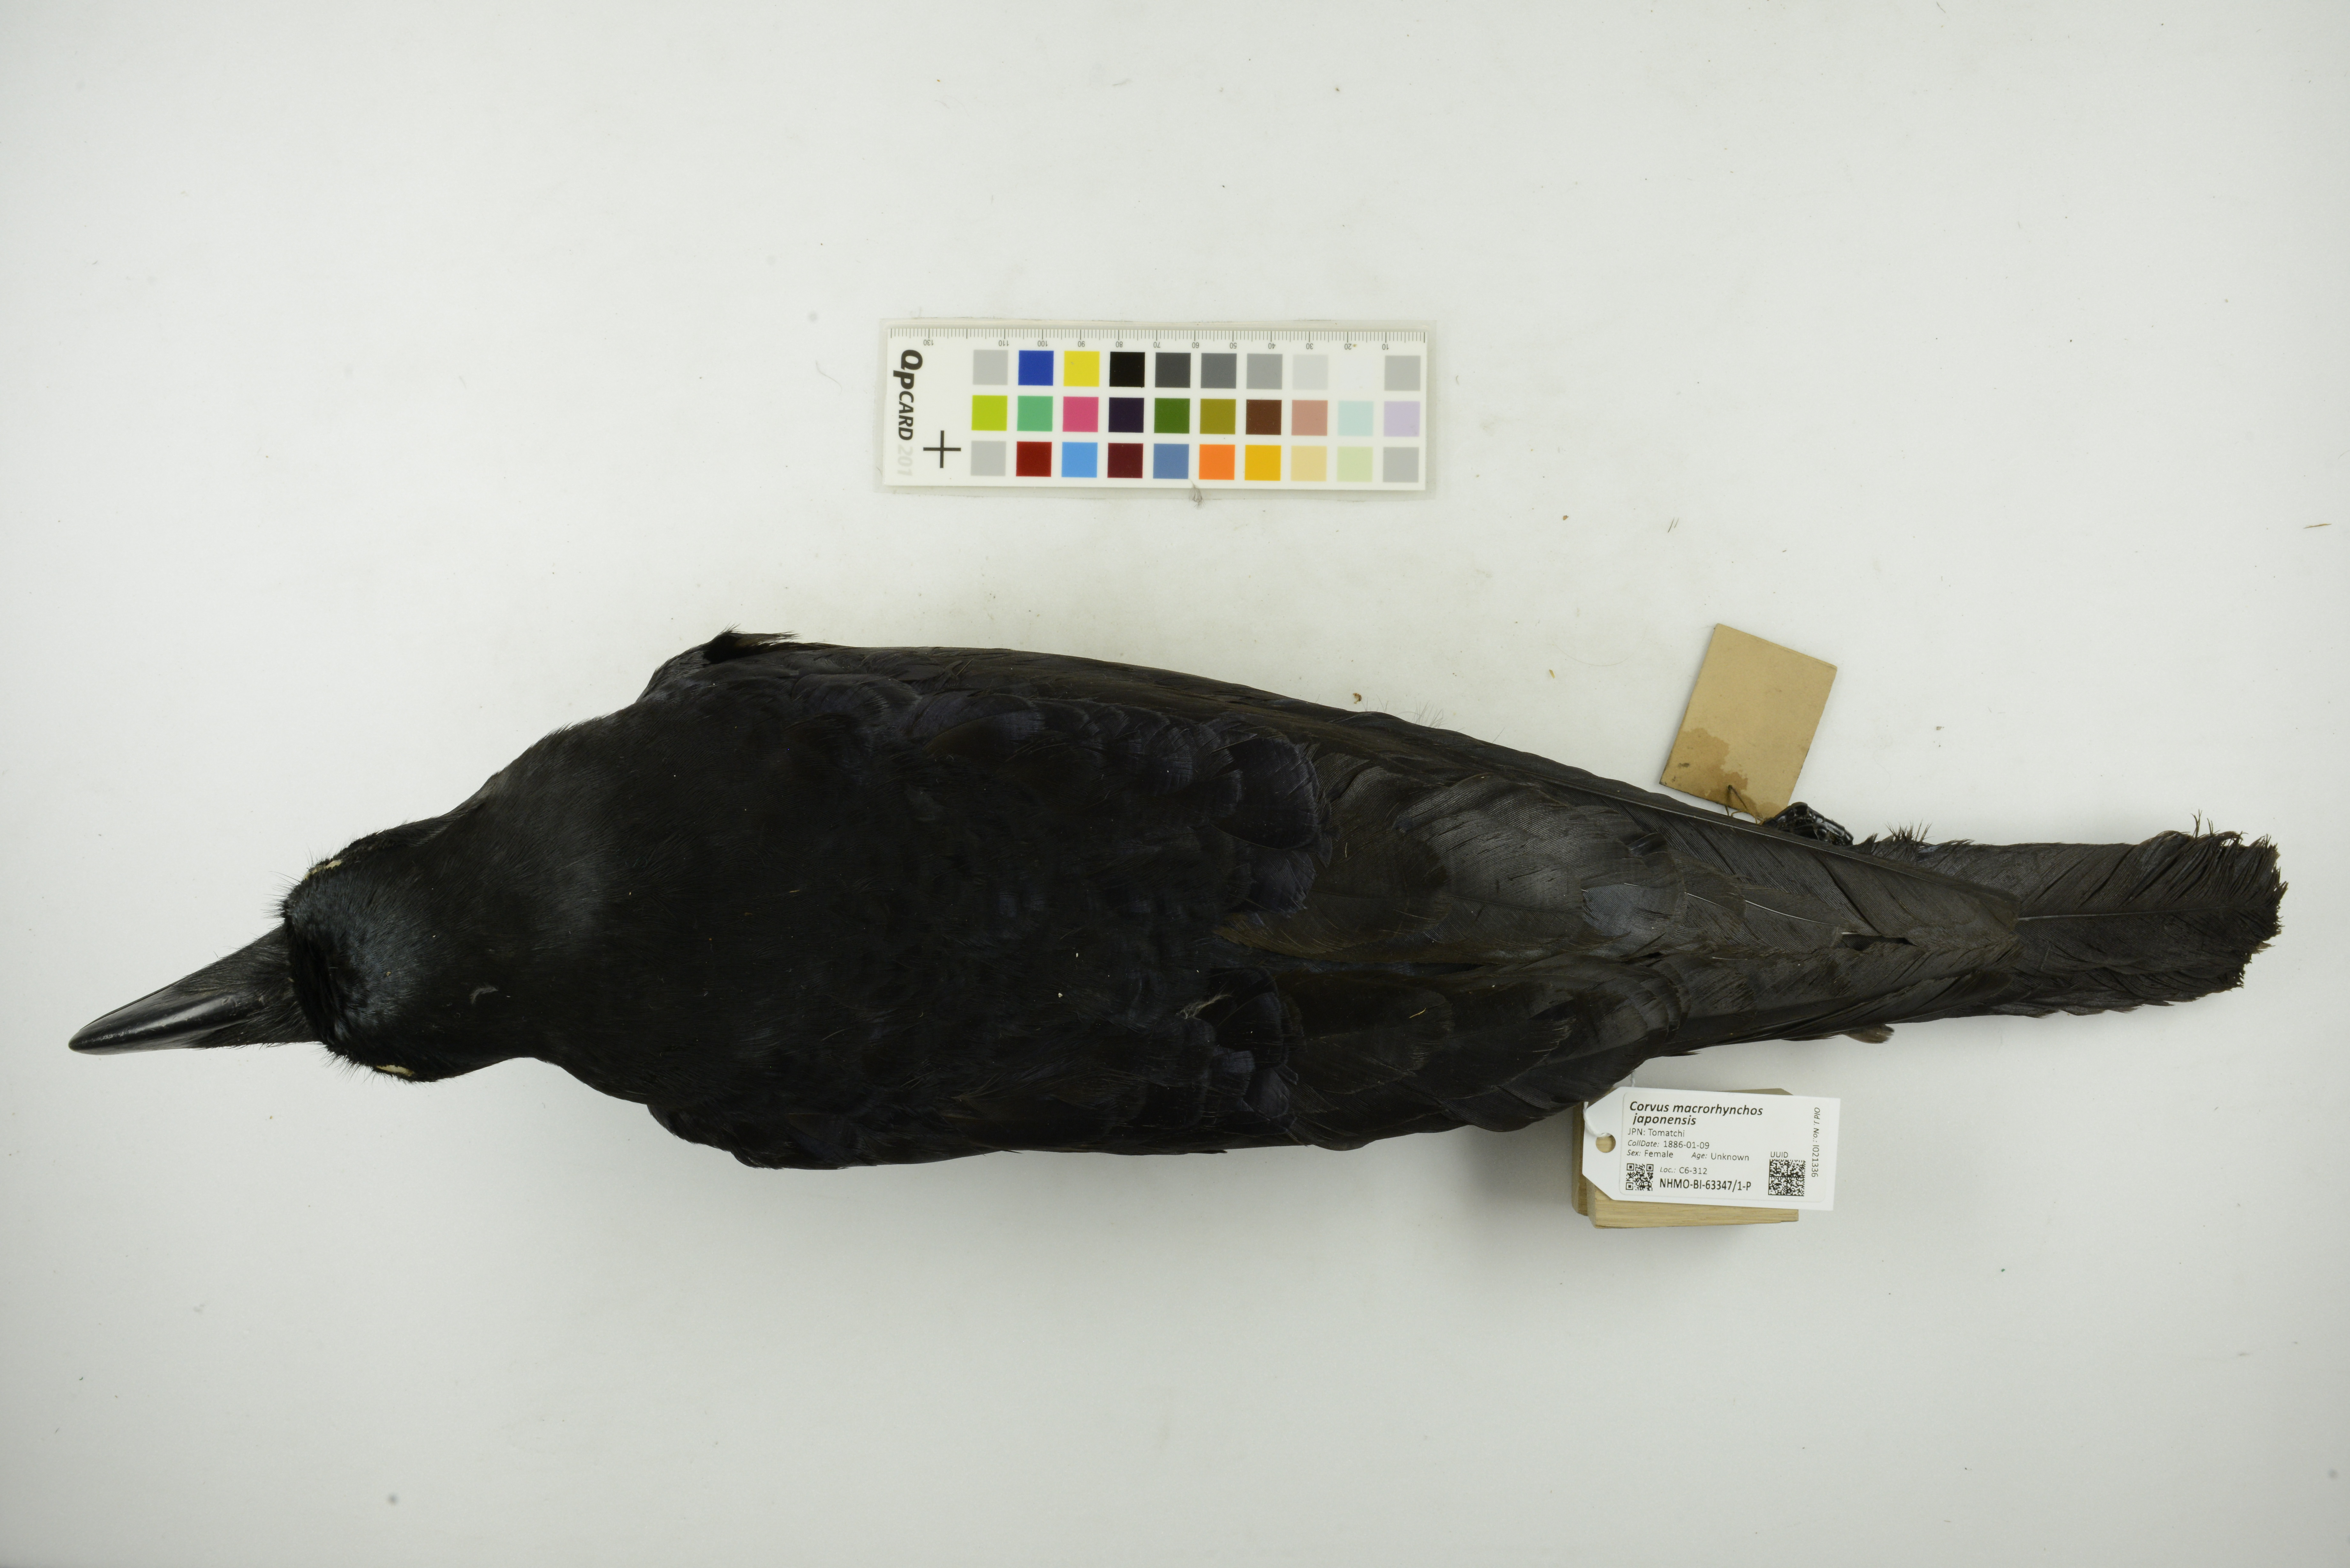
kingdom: Animalia
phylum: Chordata
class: Aves
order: Passeriformes
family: Corvidae
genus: Corvus
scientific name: Corvus macrorhynchos
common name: Large-billed crow
